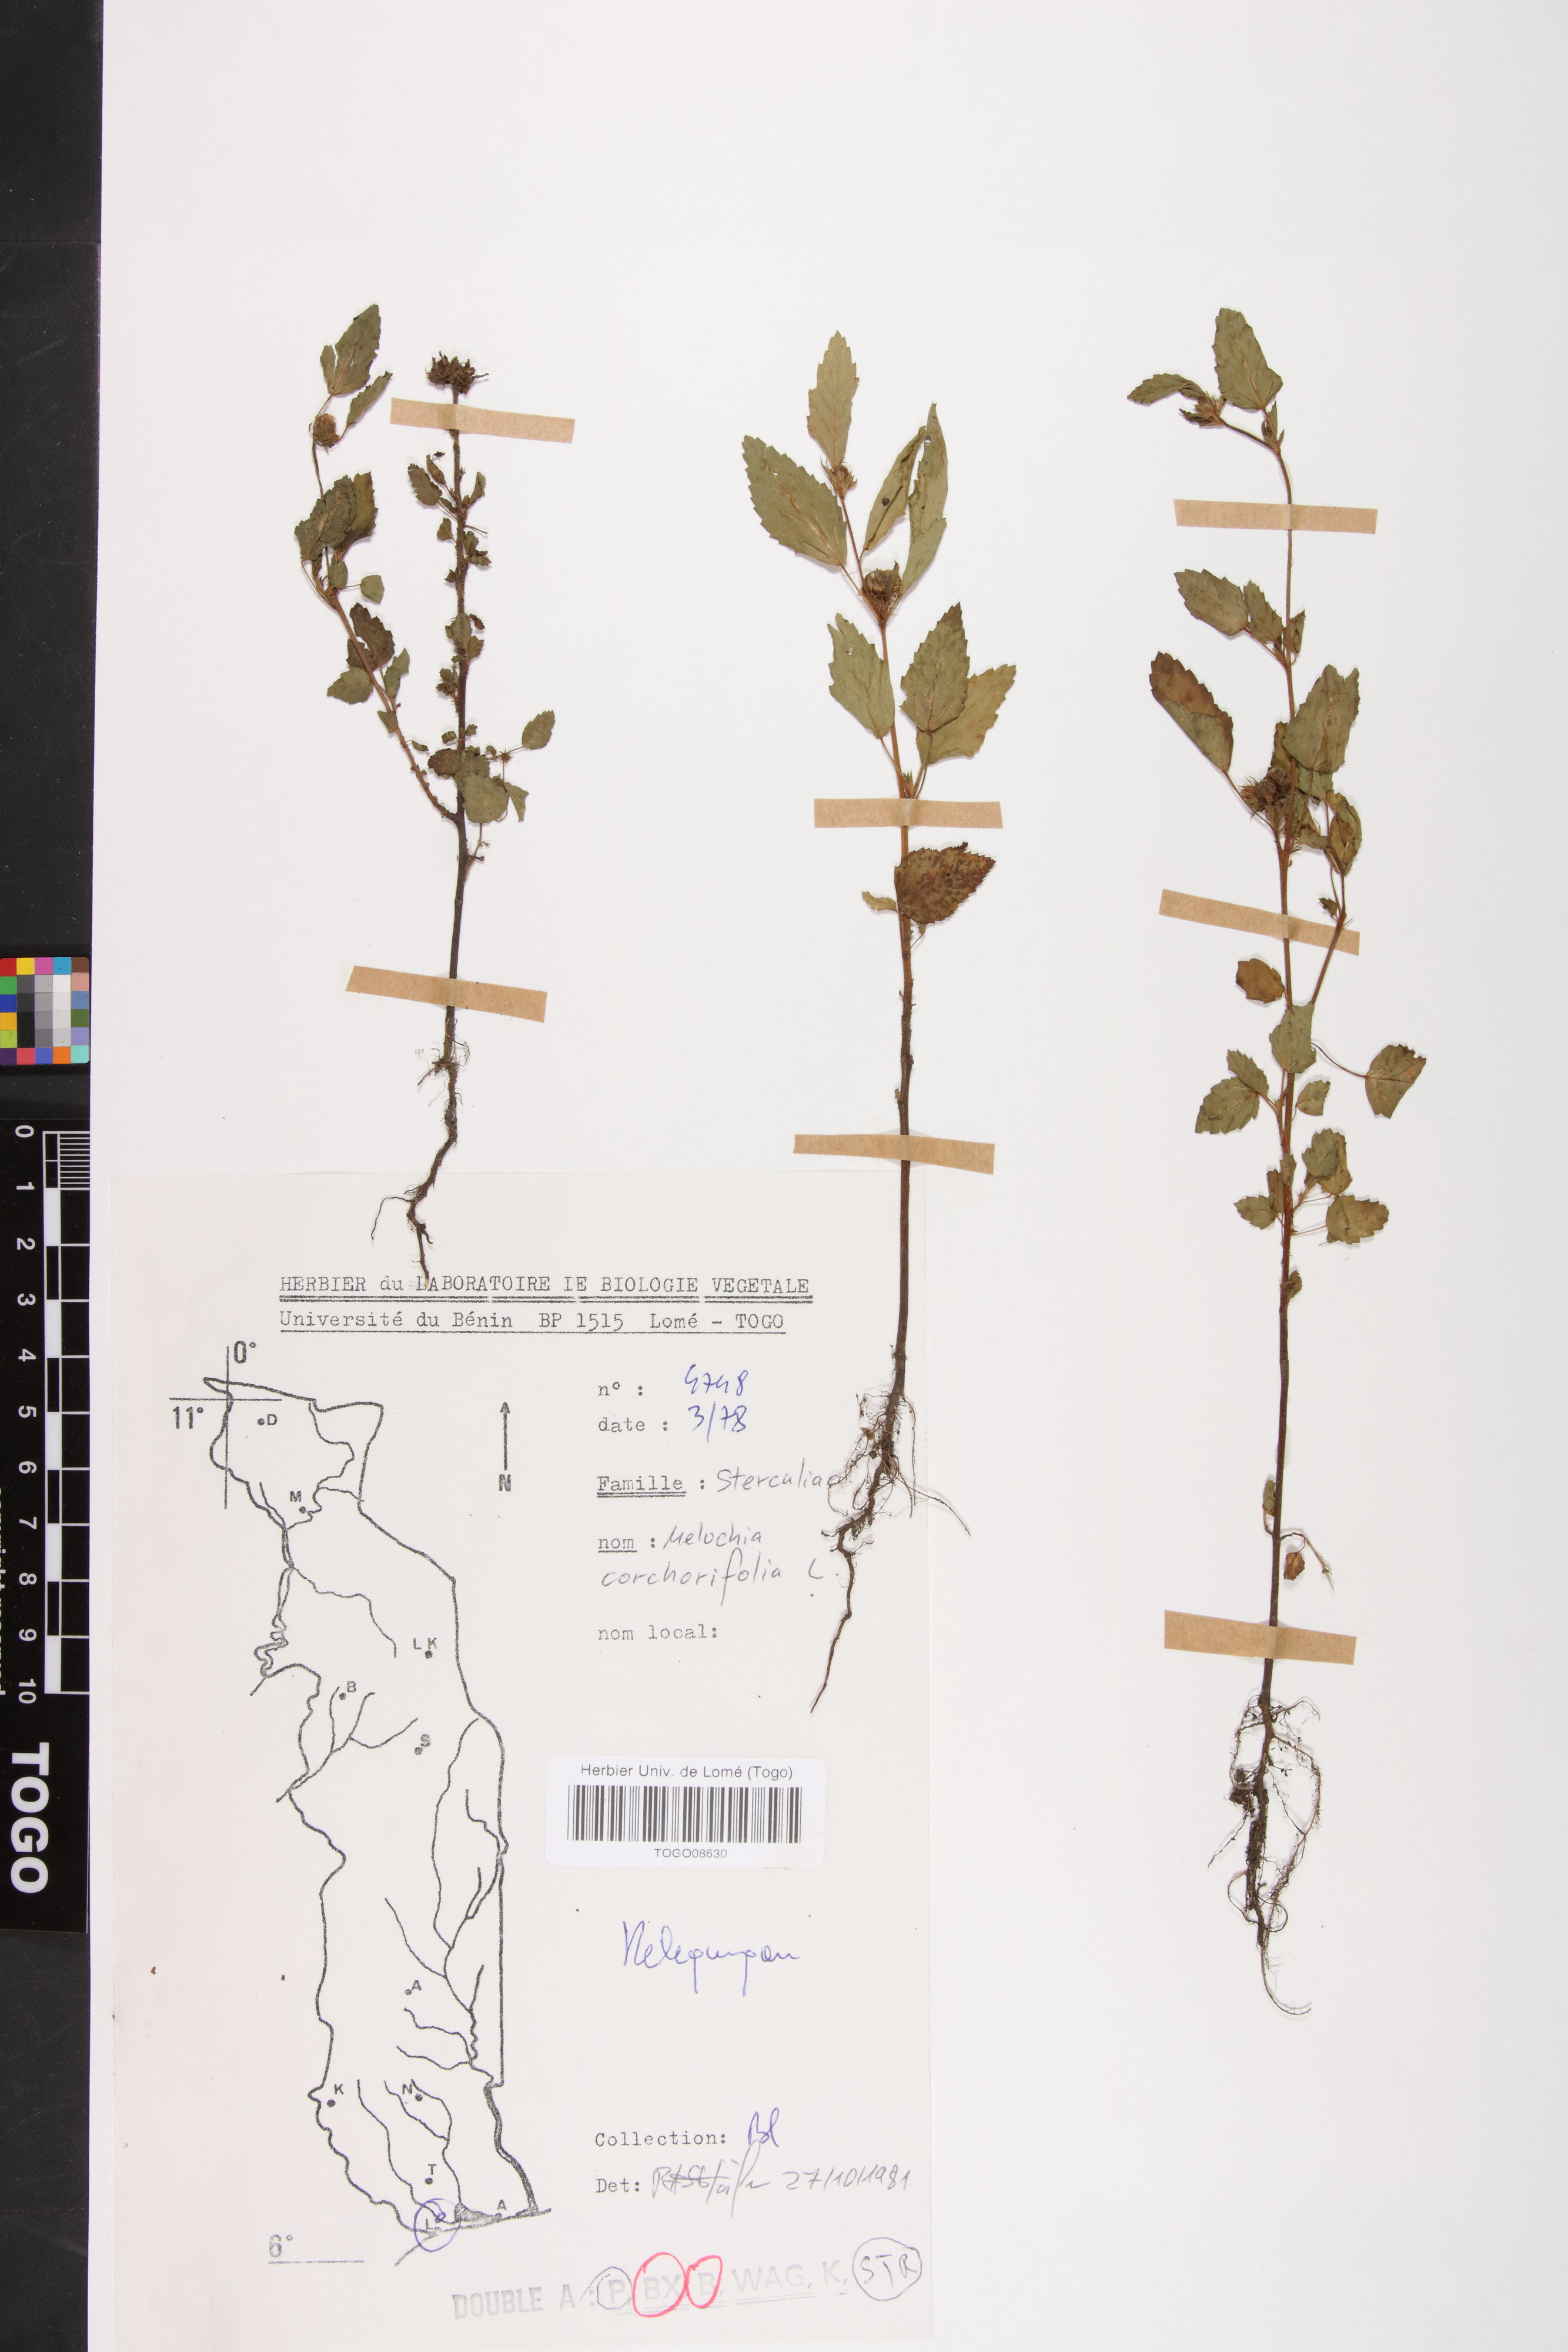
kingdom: Plantae
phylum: Tracheophyta
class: Magnoliopsida
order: Malvales
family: Malvaceae
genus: Melochia
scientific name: Melochia corchorifolia
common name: Chocolateweed
